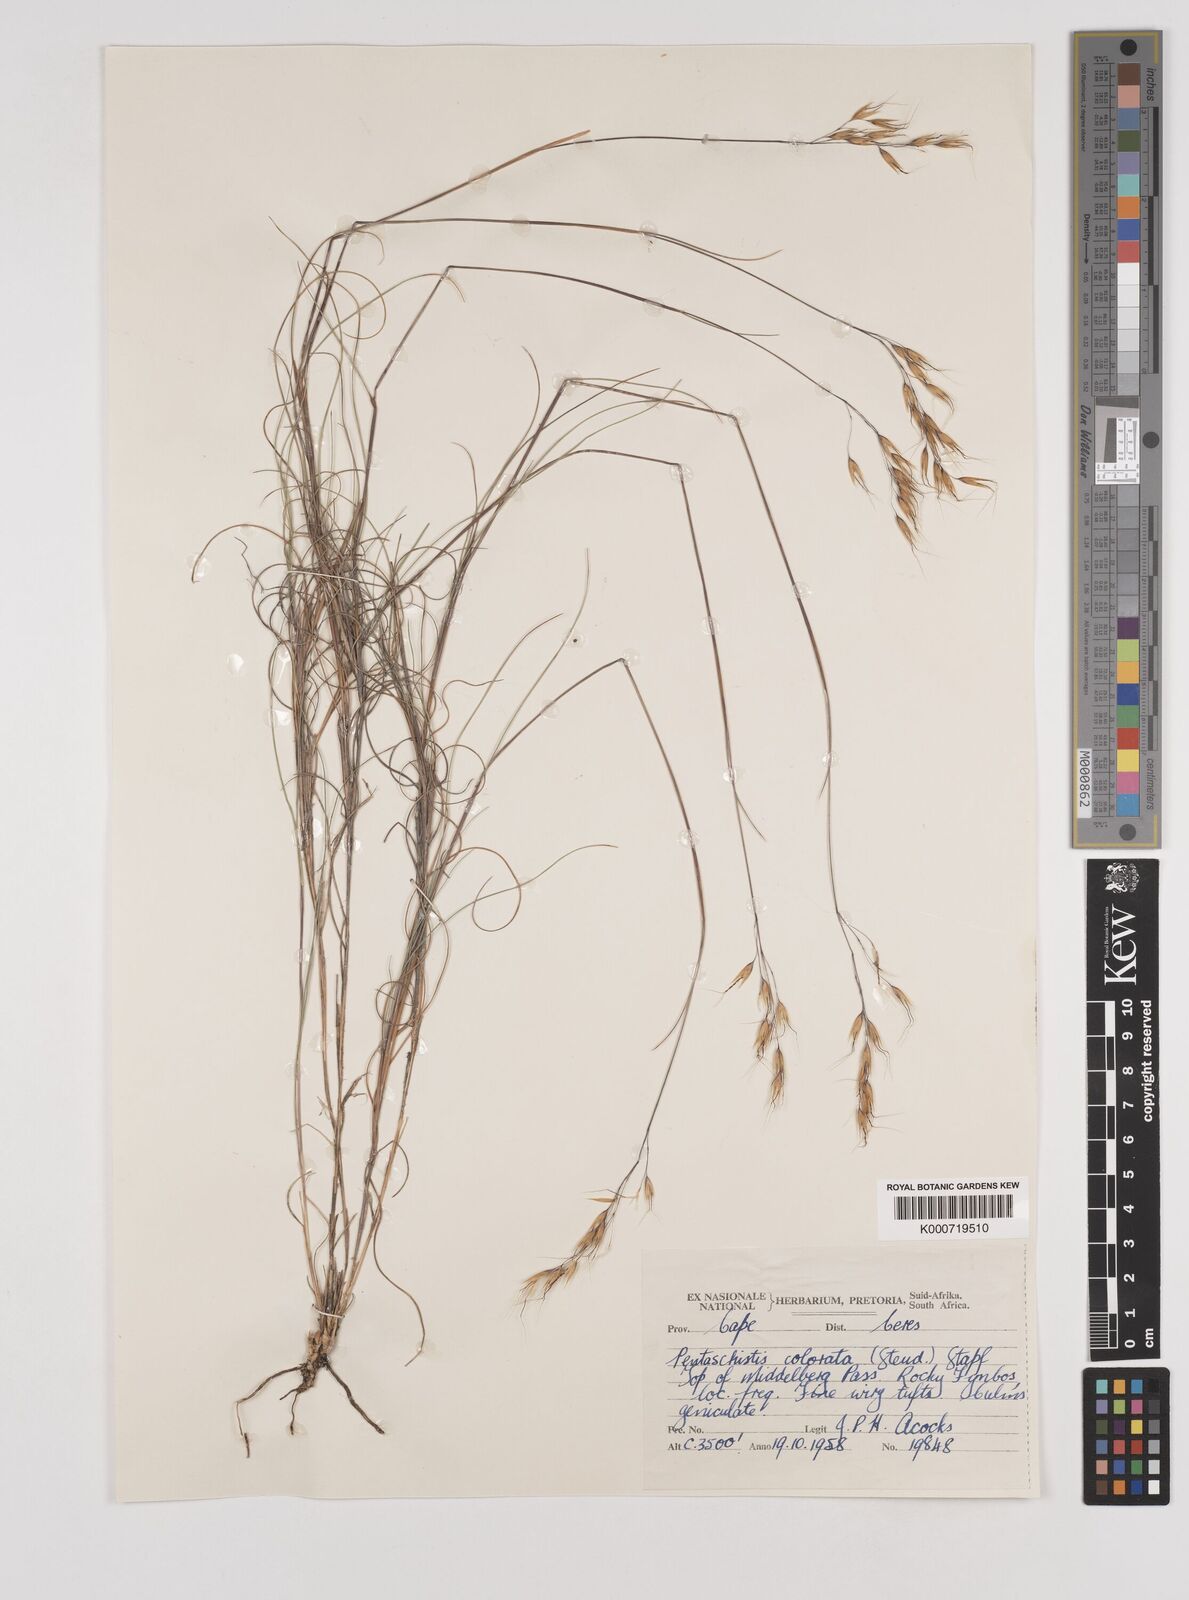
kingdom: Plantae
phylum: Tracheophyta
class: Liliopsida
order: Poales
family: Poaceae
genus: Pentameris
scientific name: Pentameris colorata
